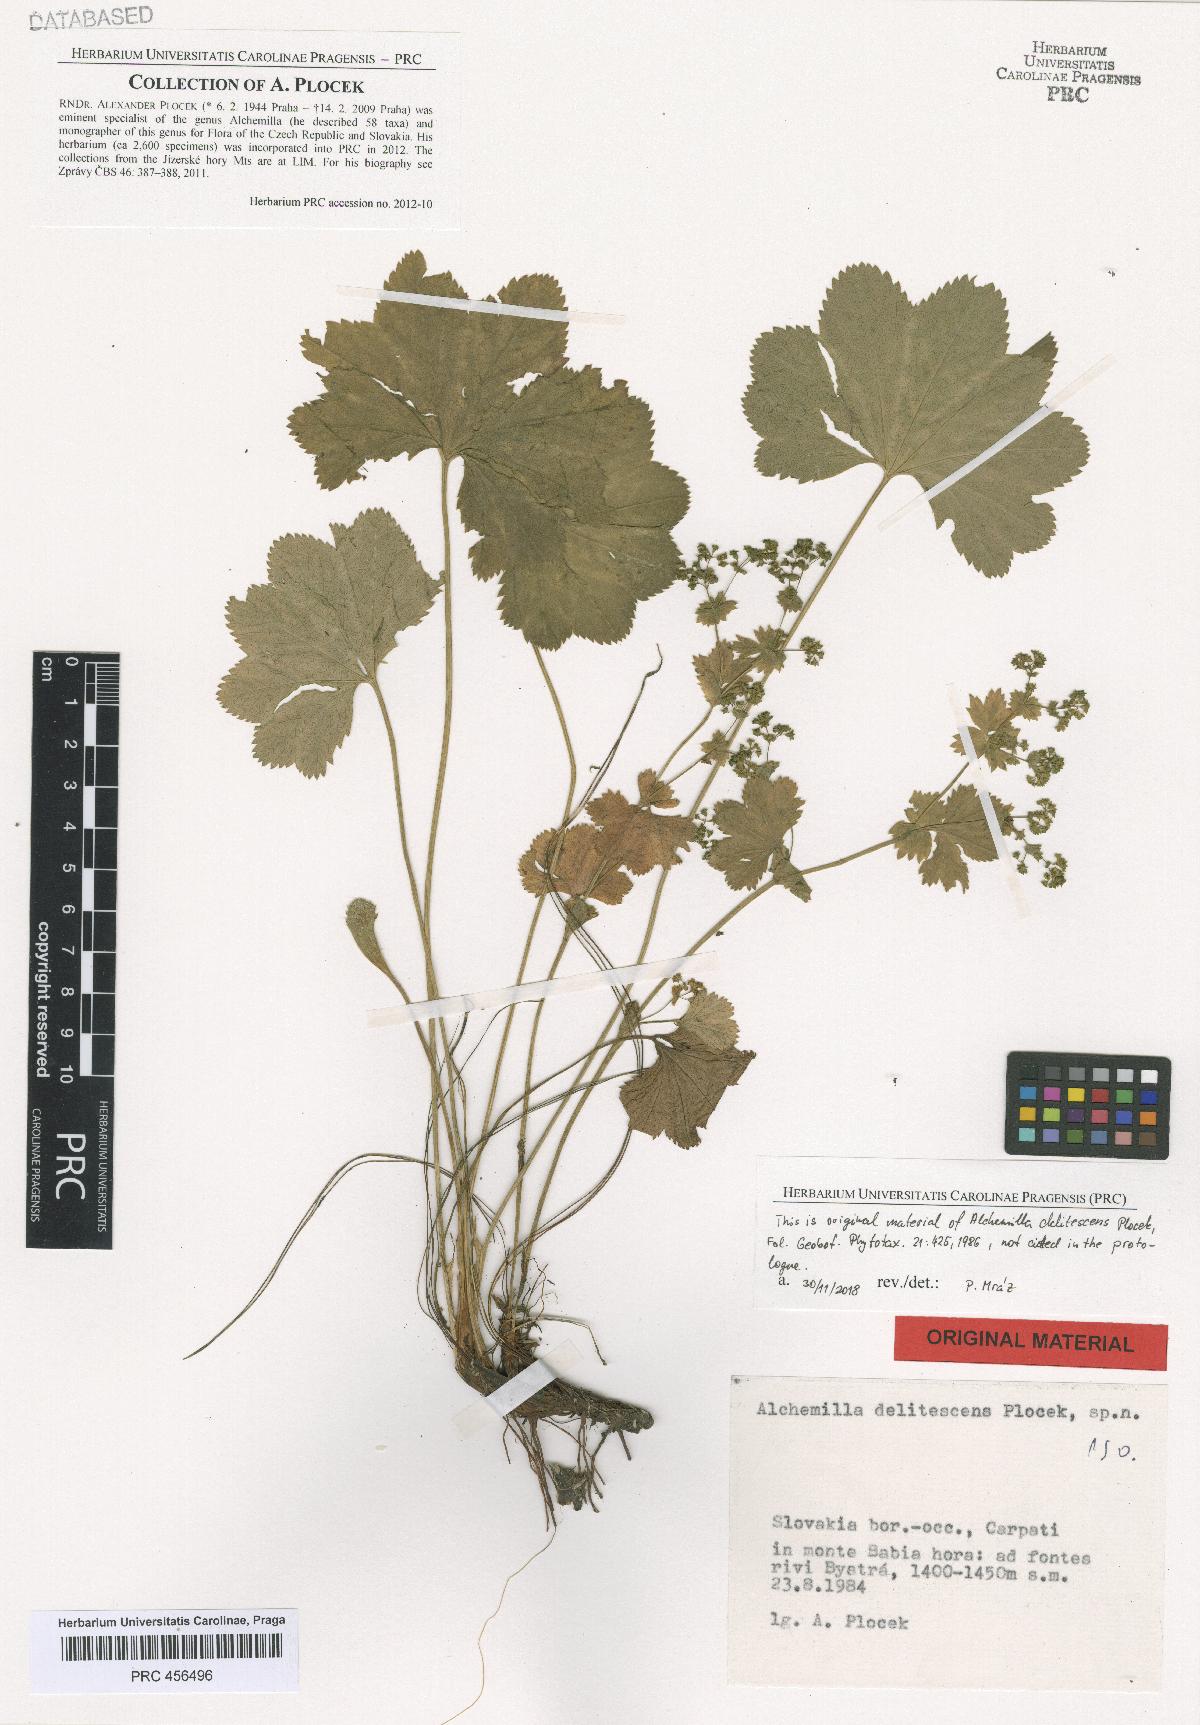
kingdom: Plantae
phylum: Tracheophyta
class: Magnoliopsida
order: Rosales
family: Rosaceae
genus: Alchemilla
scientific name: Alchemilla delitescens
